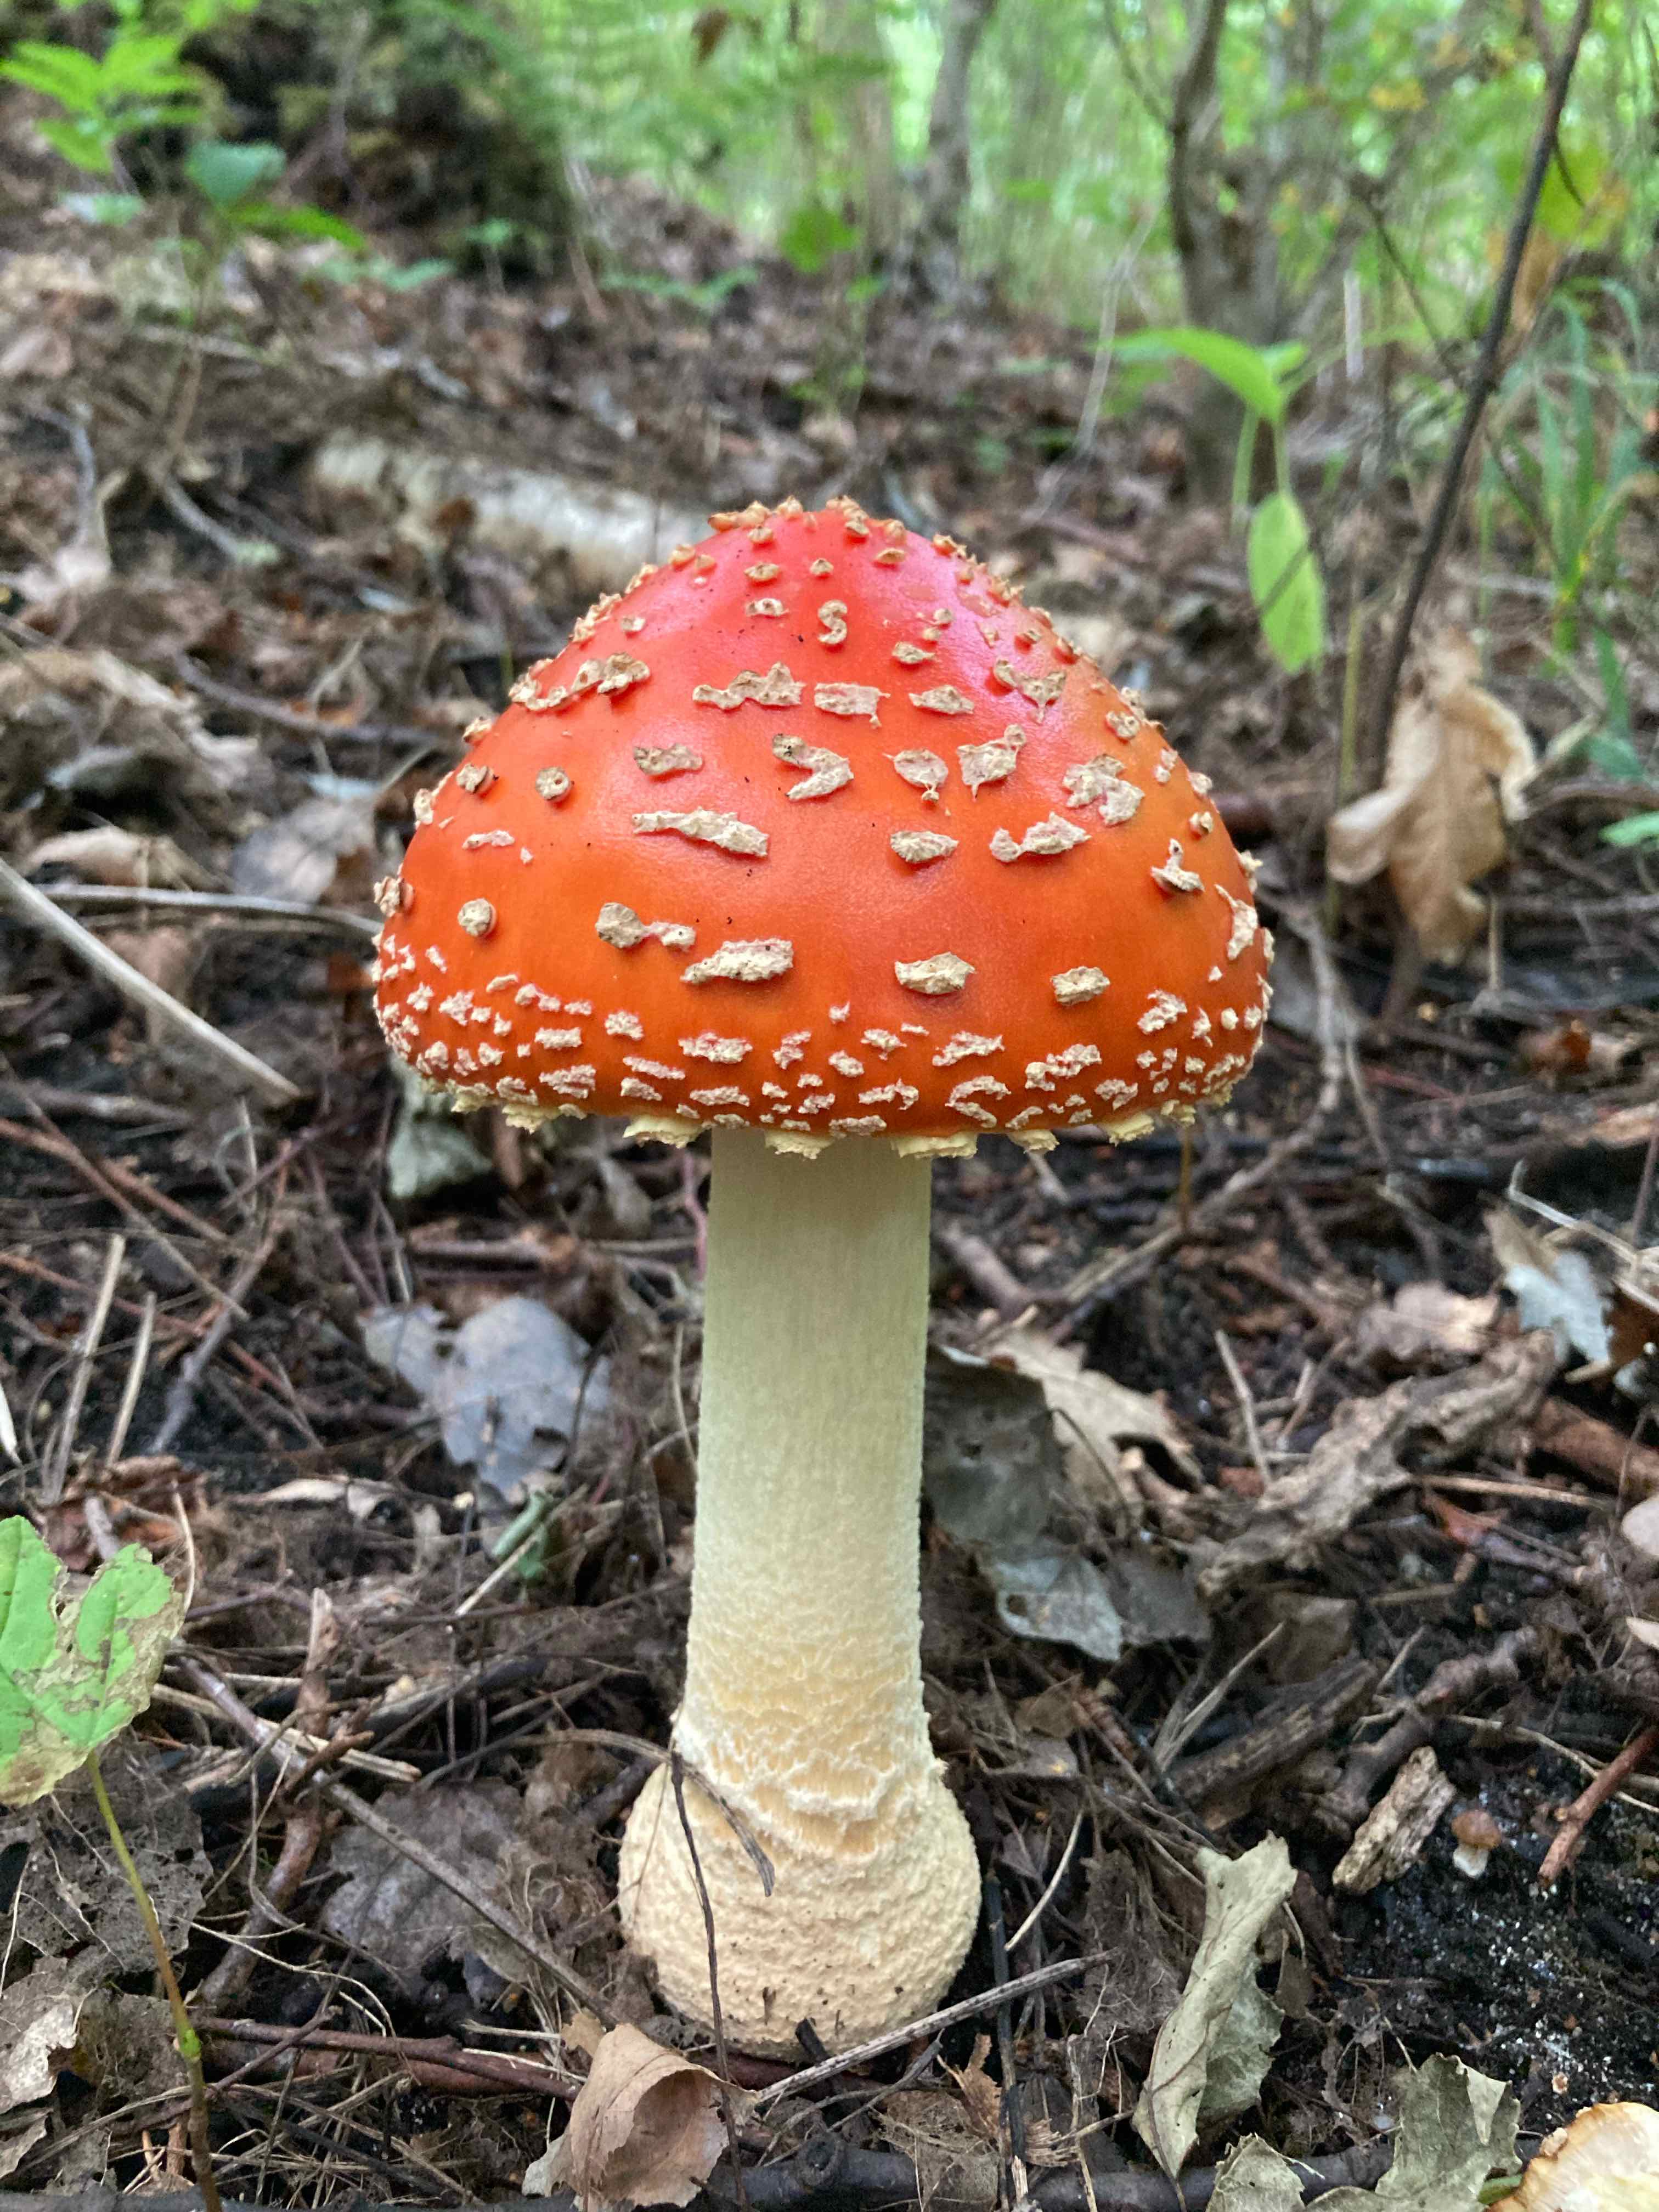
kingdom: Fungi
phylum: Basidiomycota
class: Agaricomycetes
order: Agaricales
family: Amanitaceae
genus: Amanita
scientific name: Amanita muscaria
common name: rød fluesvamp
